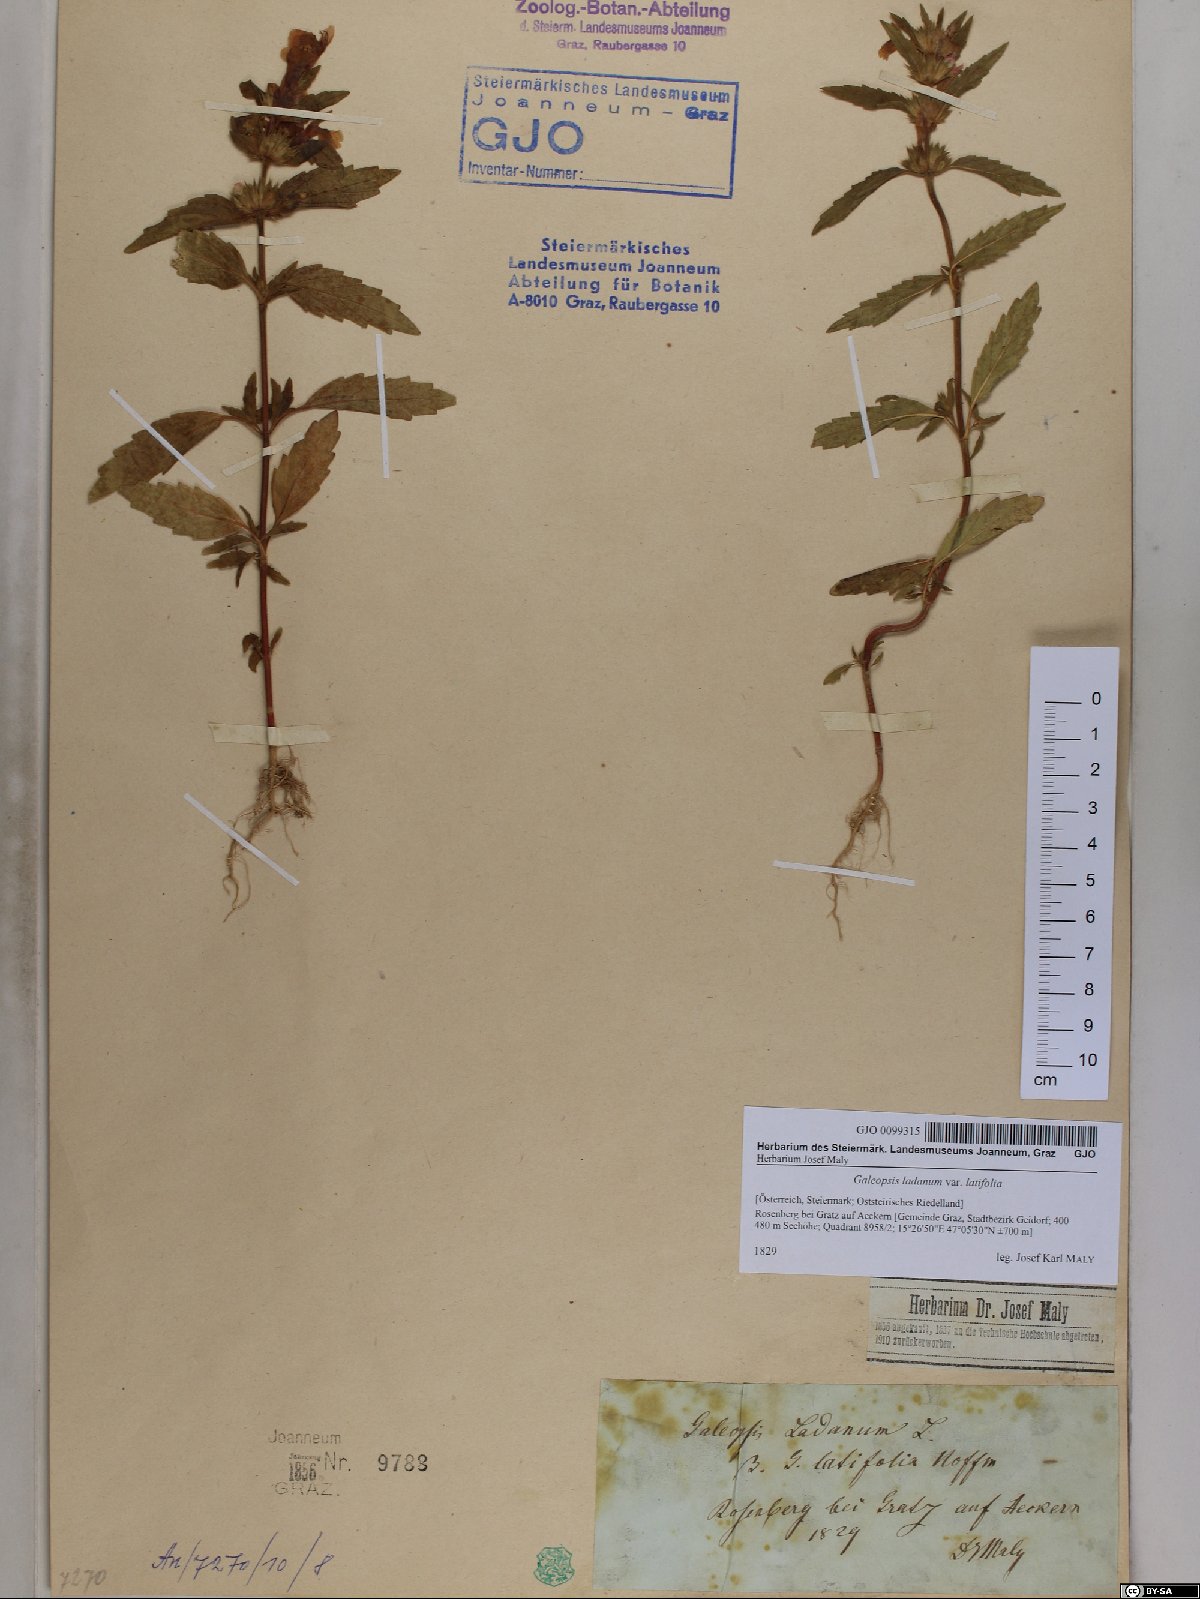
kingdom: Plantae
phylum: Tracheophyta
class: Magnoliopsida
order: Lamiales
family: Lamiaceae
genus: Galeopsis
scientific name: Galeopsis ladanum
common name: Broad-leaved hemp-nettle
